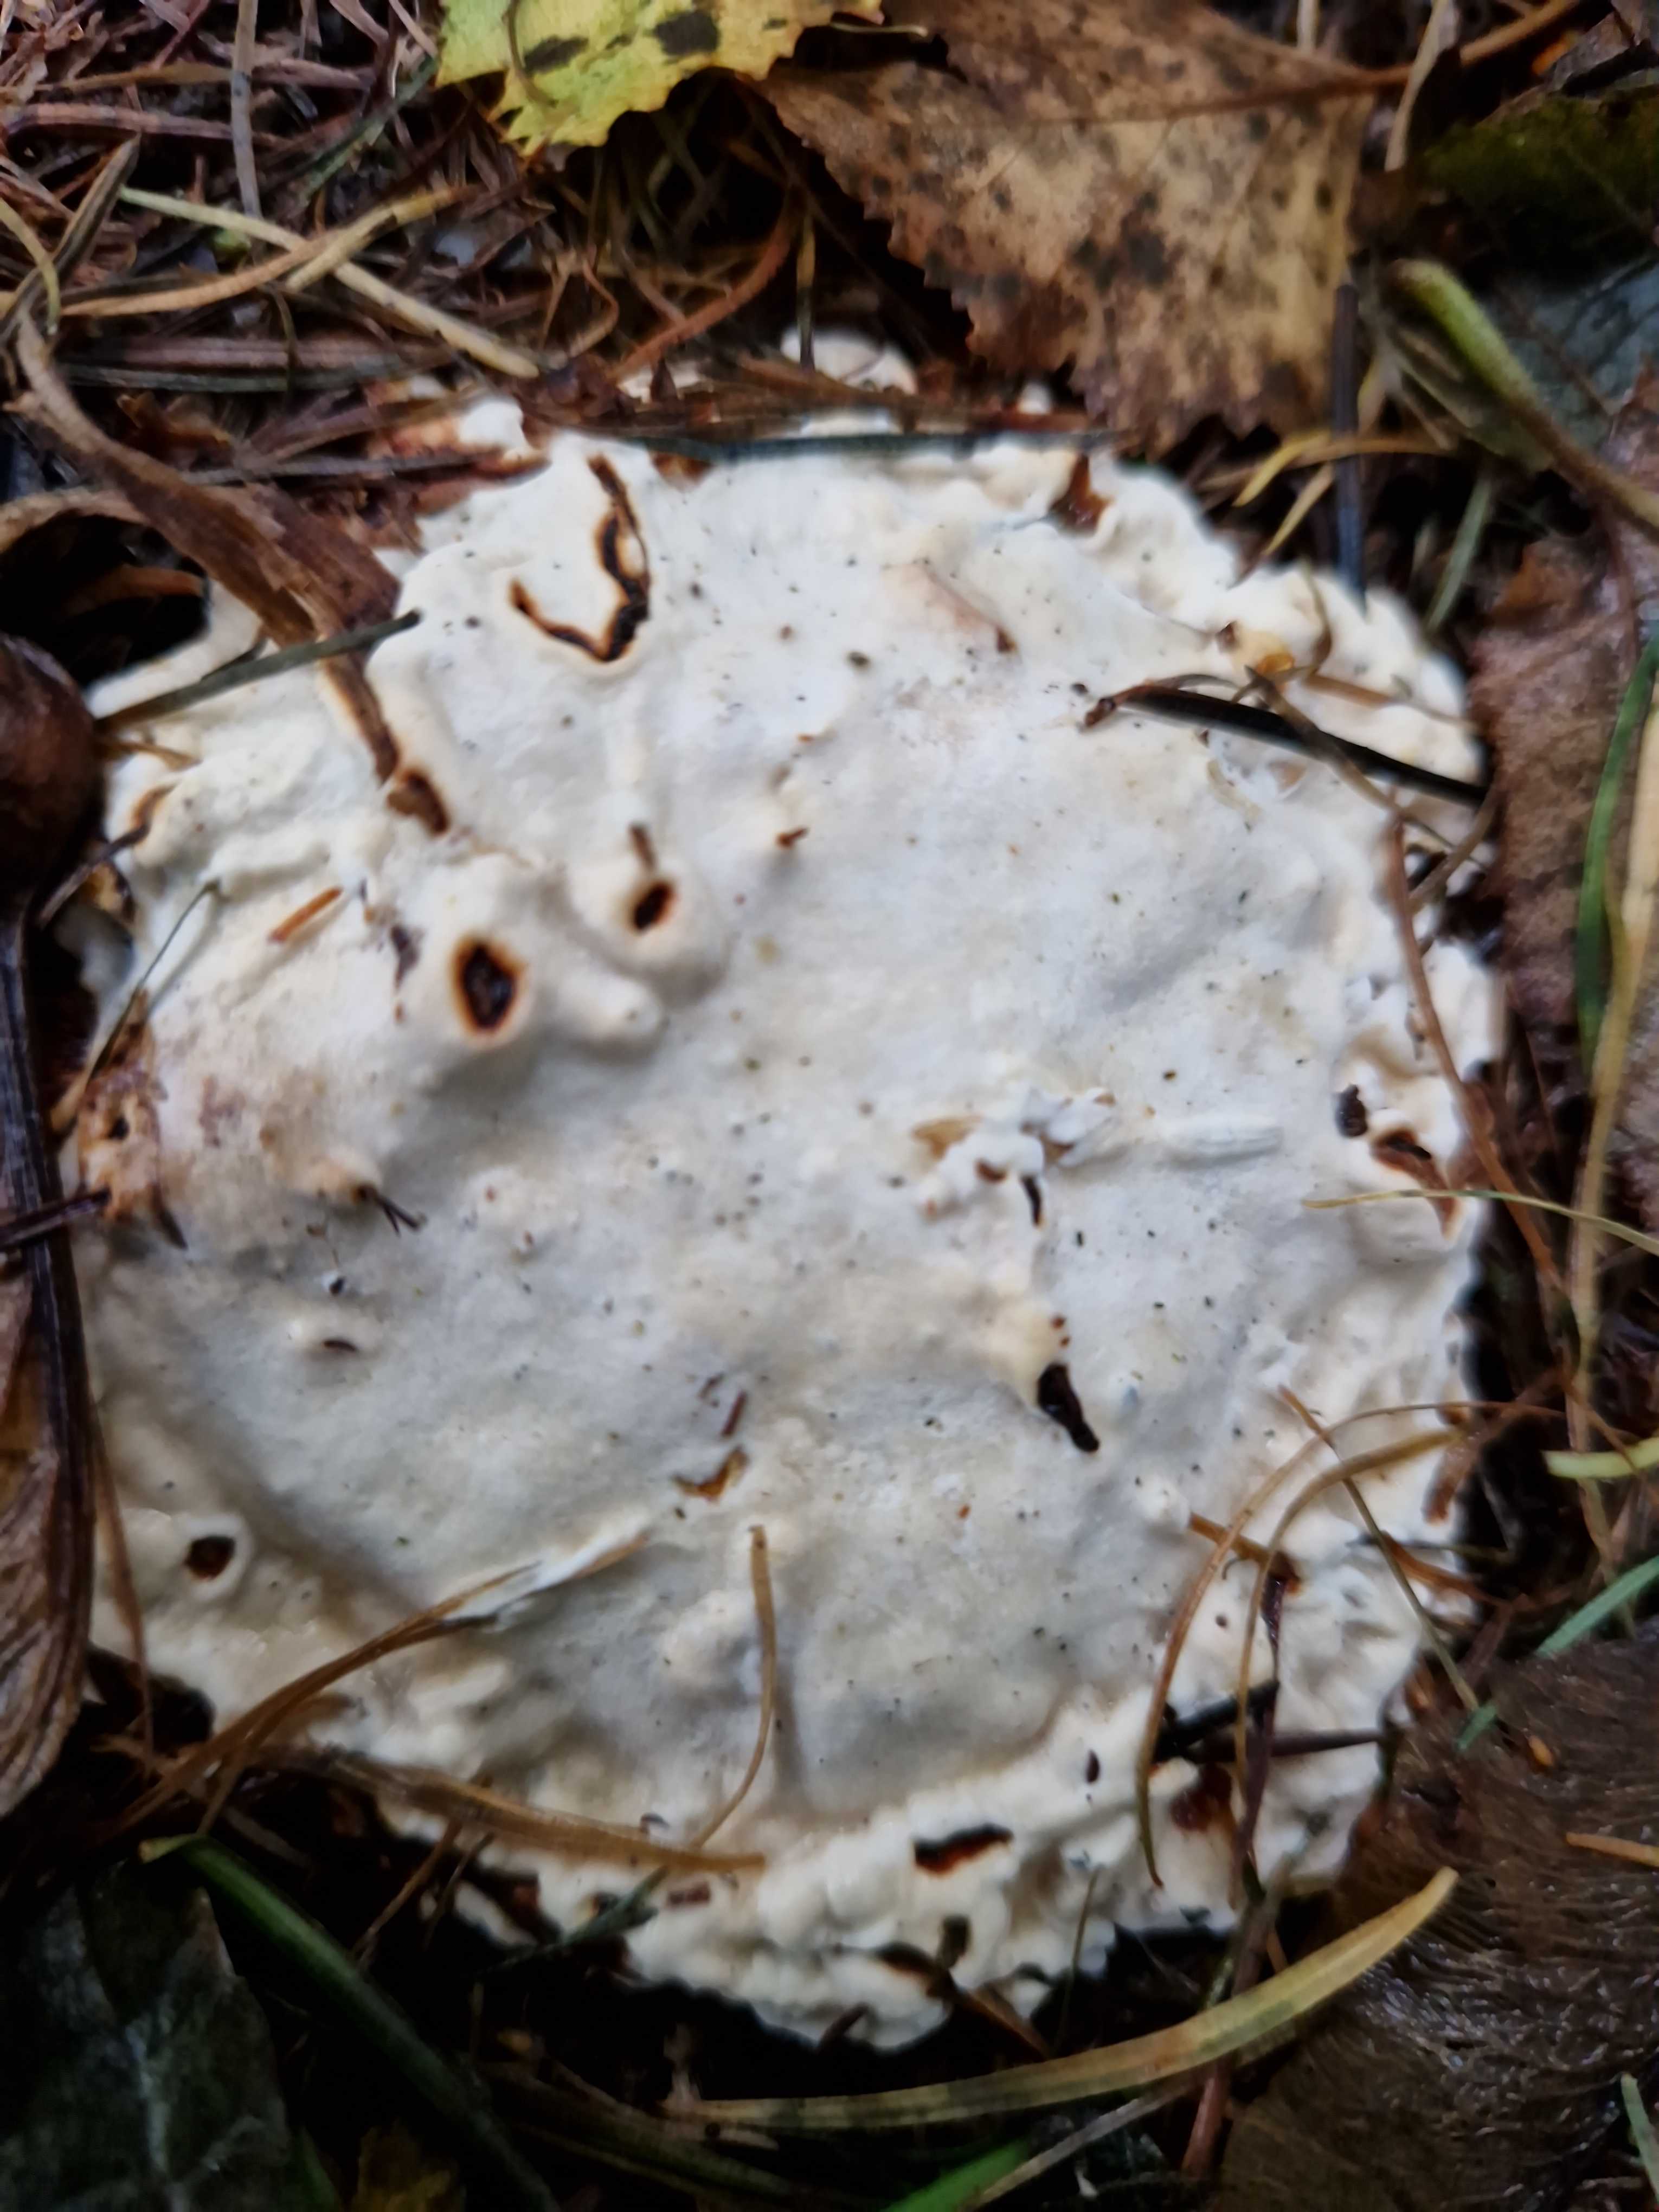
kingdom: Fungi
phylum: Basidiomycota
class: Agaricomycetes
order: Russulales
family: Bondarzewiaceae
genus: Heterobasidion
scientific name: Heterobasidion
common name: rodfordærver
